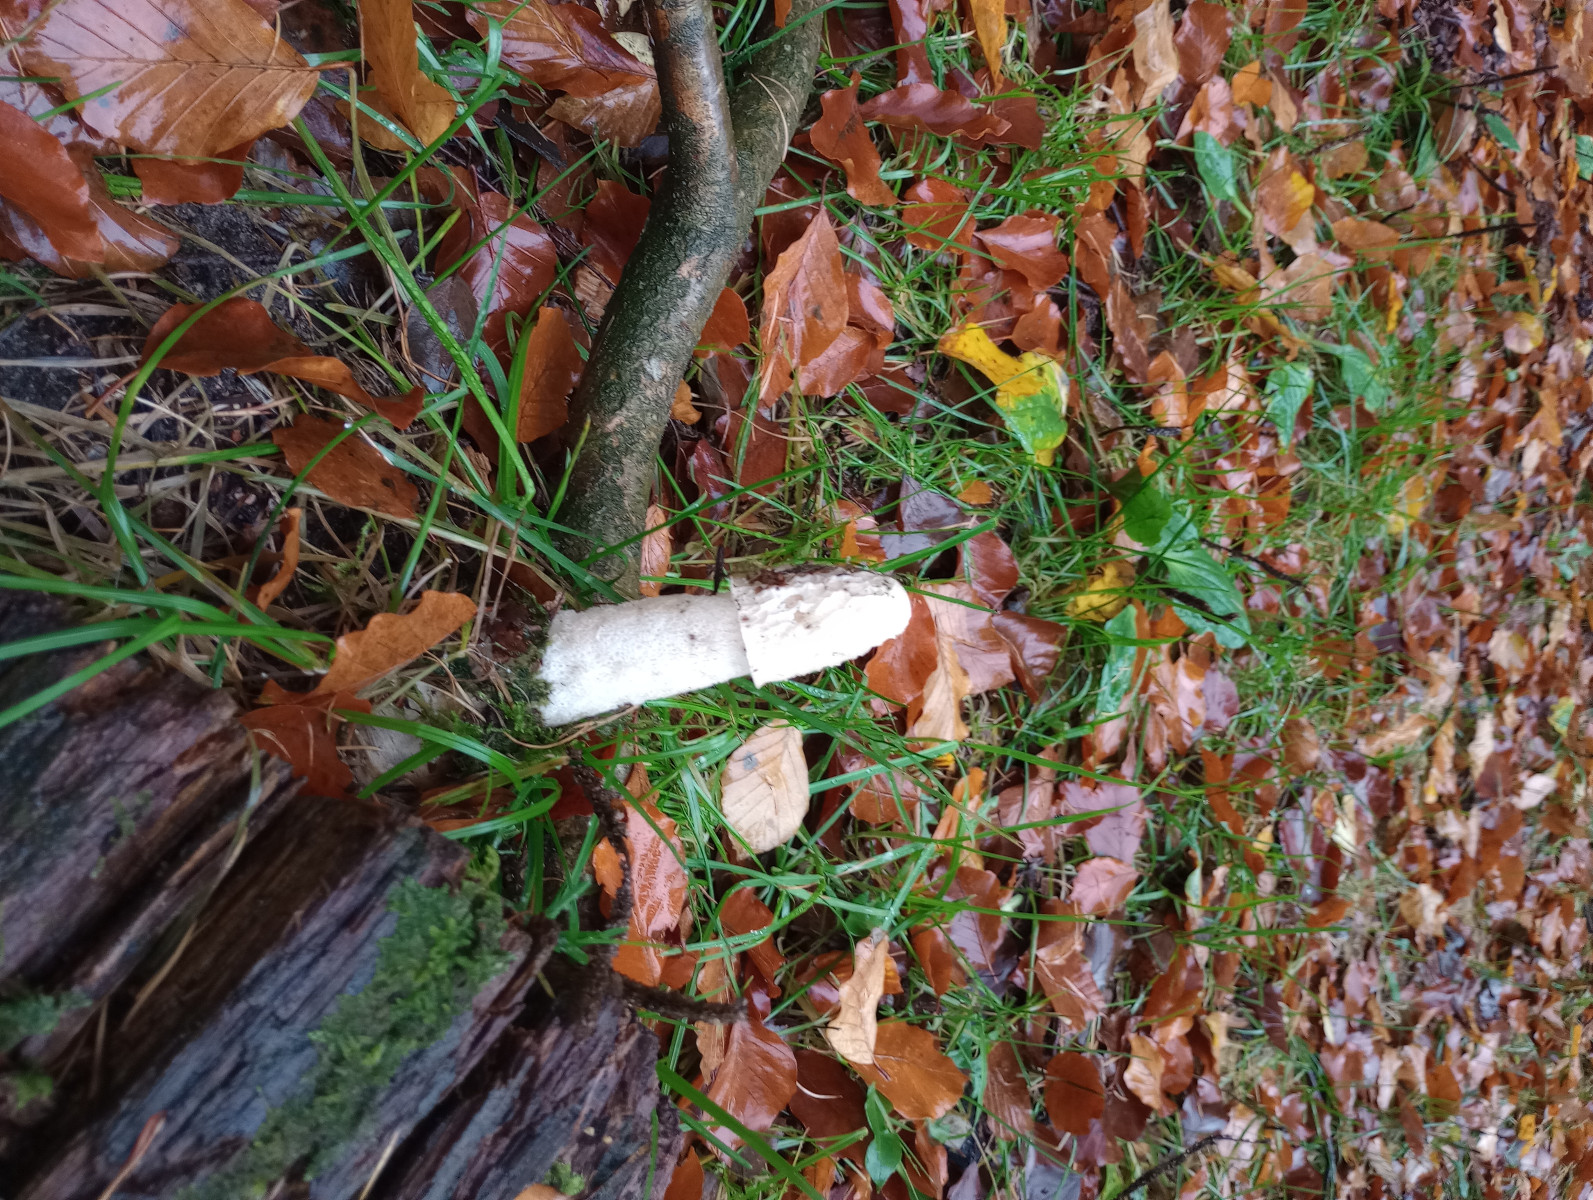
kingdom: Fungi
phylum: Basidiomycota
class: Agaricomycetes
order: Phallales
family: Phallaceae
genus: Phallus
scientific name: Phallus impudicus
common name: almindelig stinksvamp
